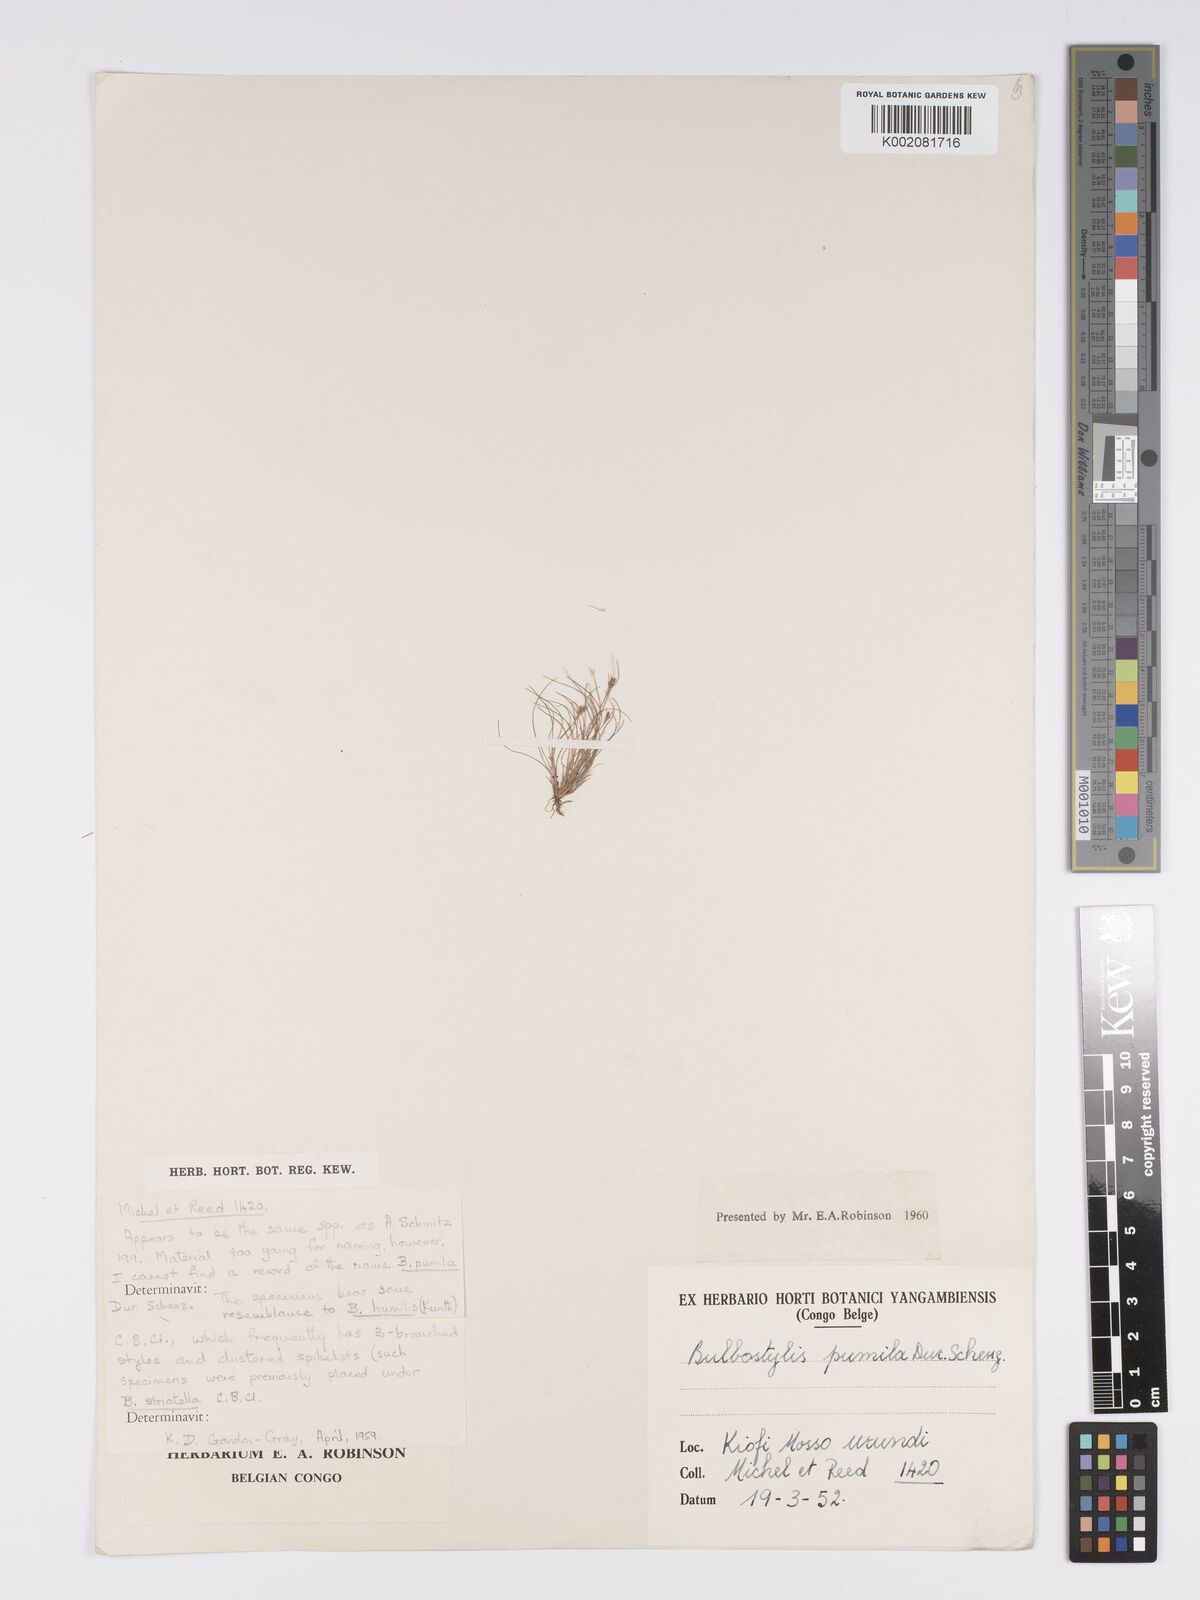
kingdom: Plantae
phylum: Tracheophyta
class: Liliopsida
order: Poales
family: Cyperaceae
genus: Bulbostylis
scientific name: Bulbostylis mucronata
